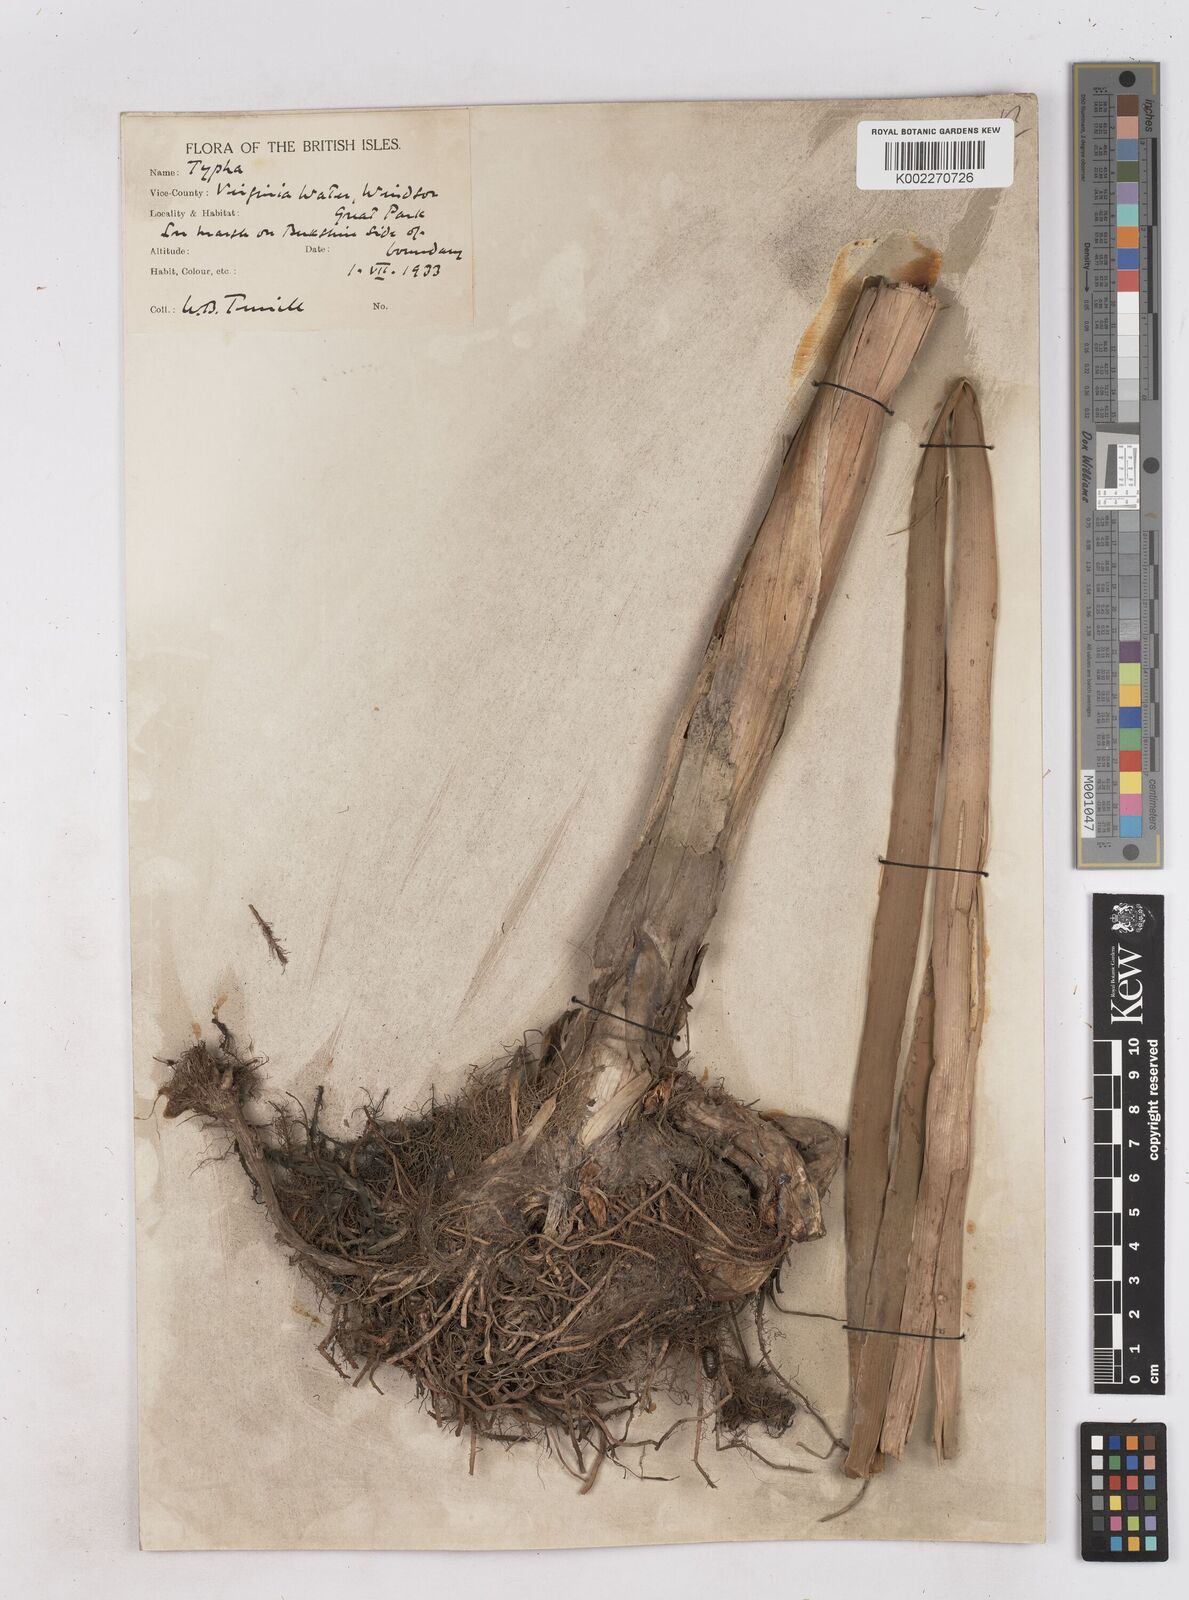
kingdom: Plantae
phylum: Tracheophyta
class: Liliopsida
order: Poales
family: Typhaceae
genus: Typha
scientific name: Typha latifolia
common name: Broadleaf cattail
